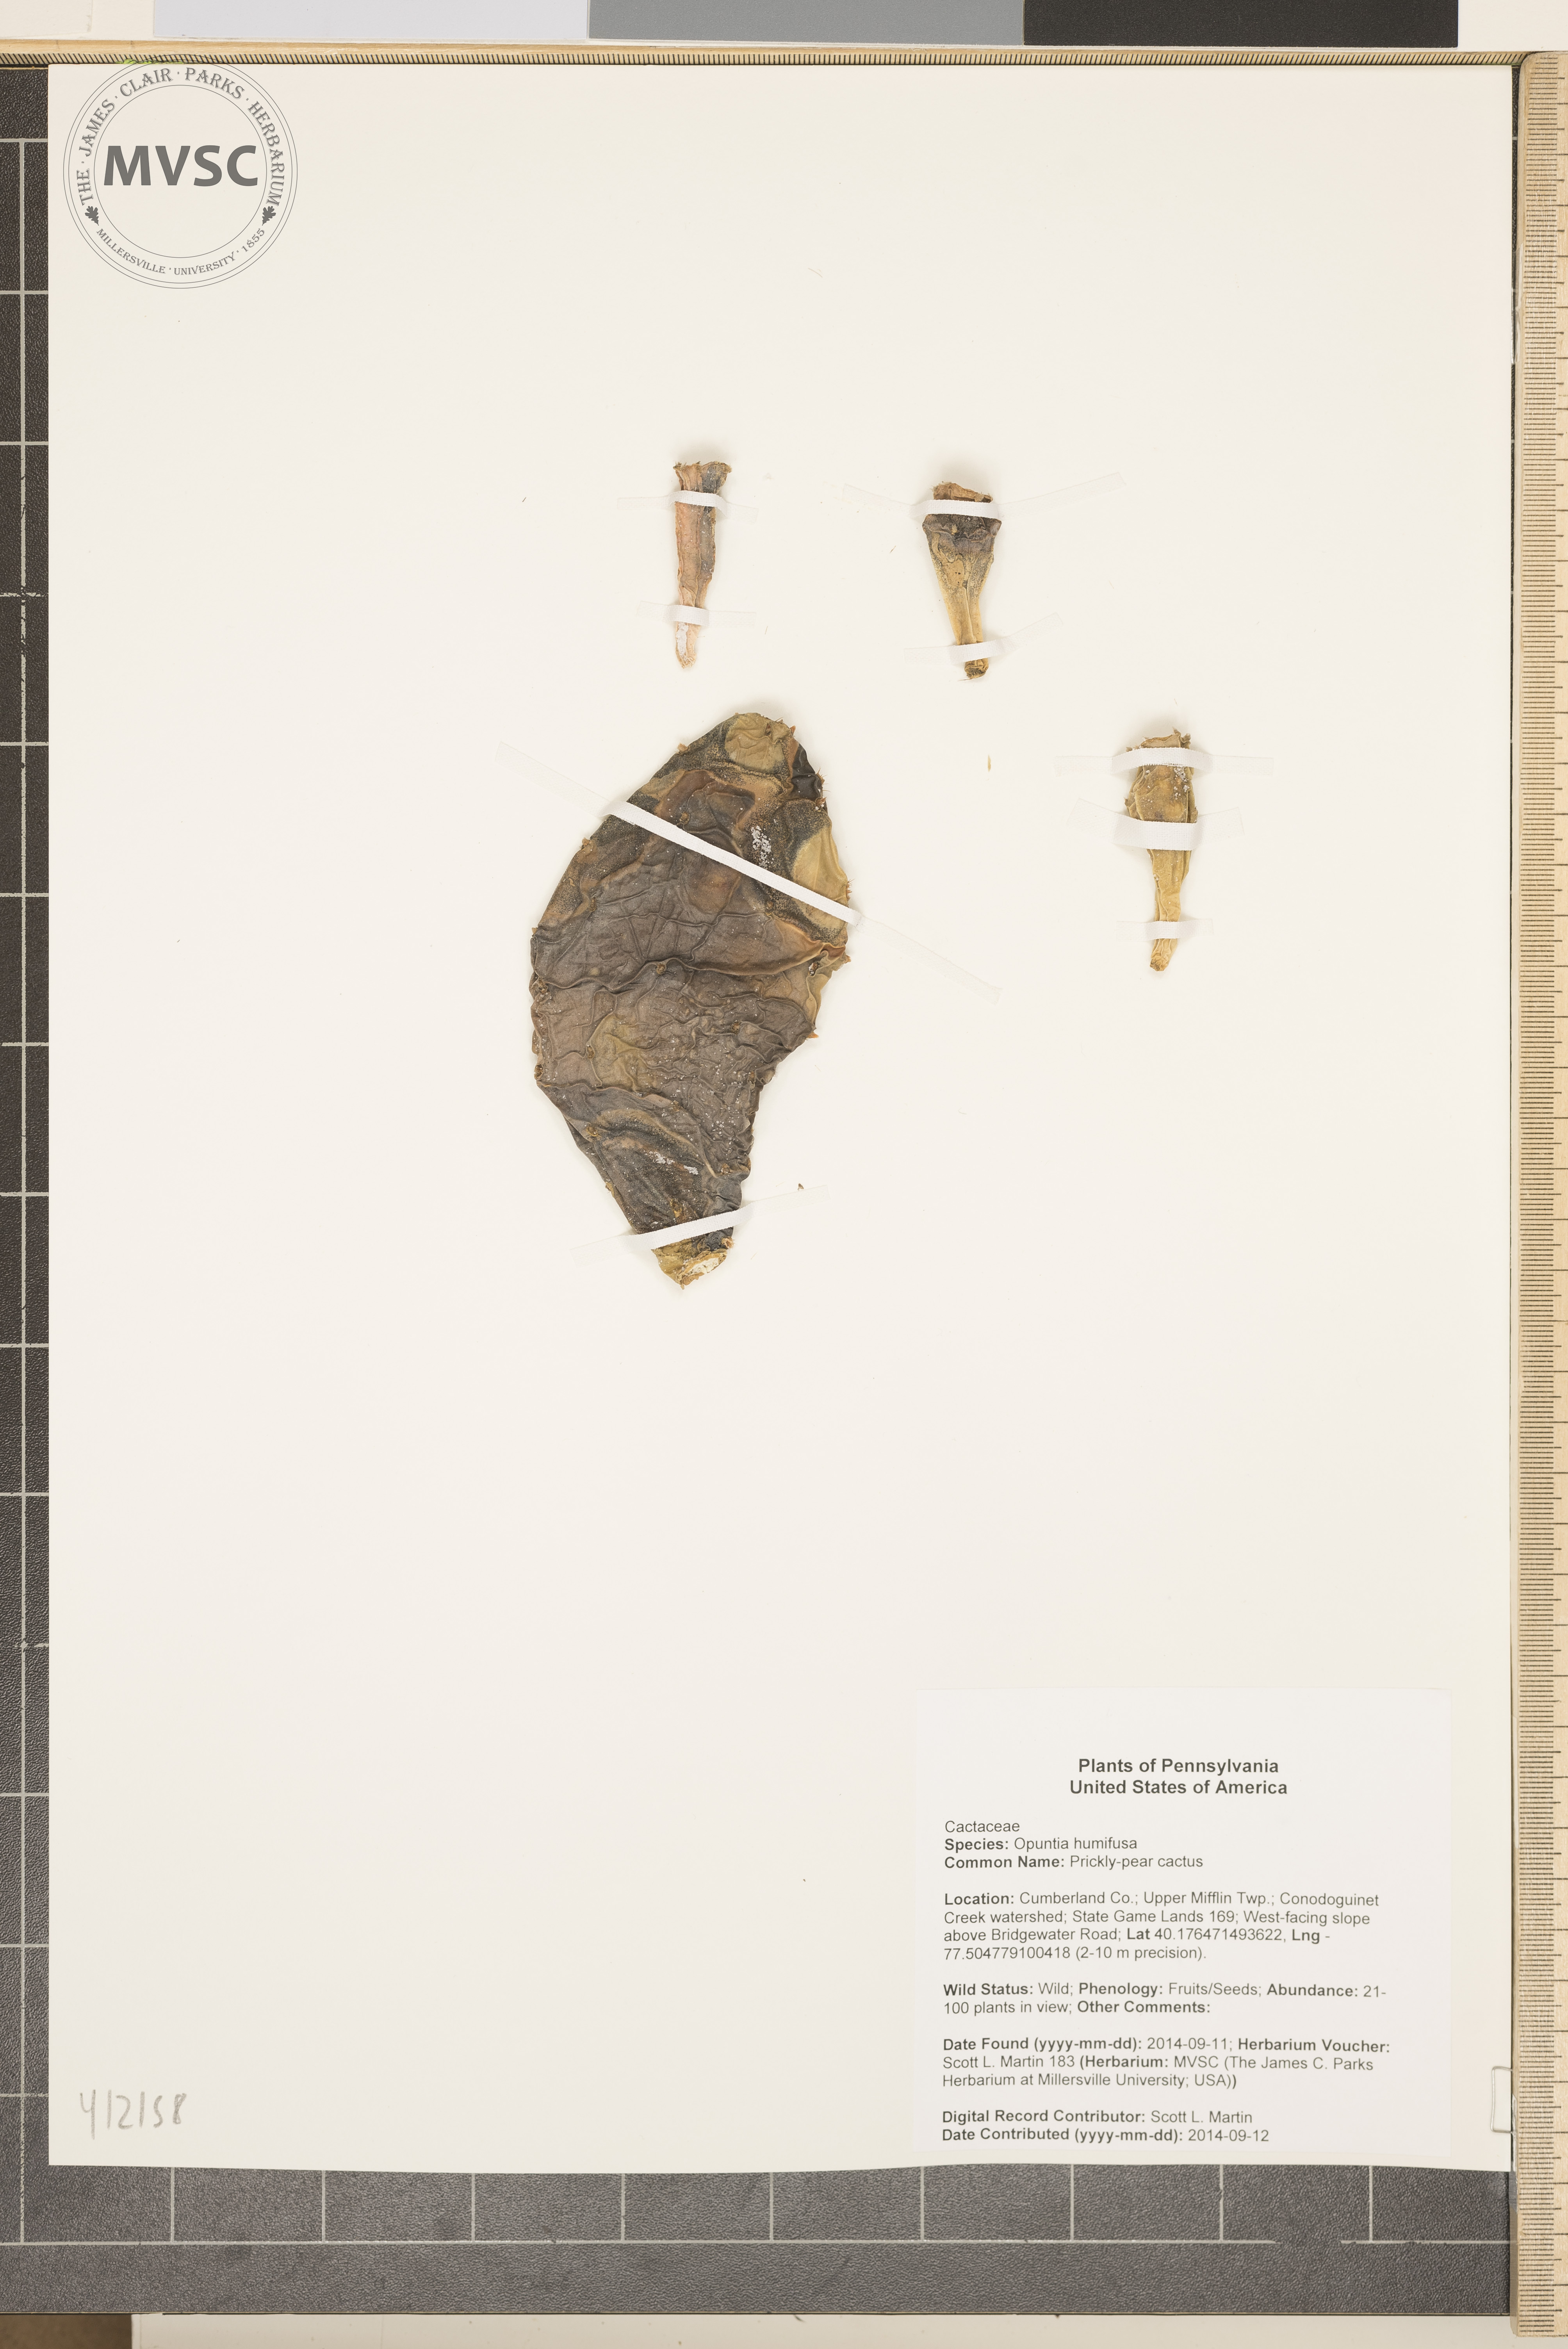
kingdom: Plantae
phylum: Tracheophyta
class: Magnoliopsida
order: Caryophyllales
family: Cactaceae
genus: Opuntia
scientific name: Opuntia humifusa
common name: Prickly-pear cactus
